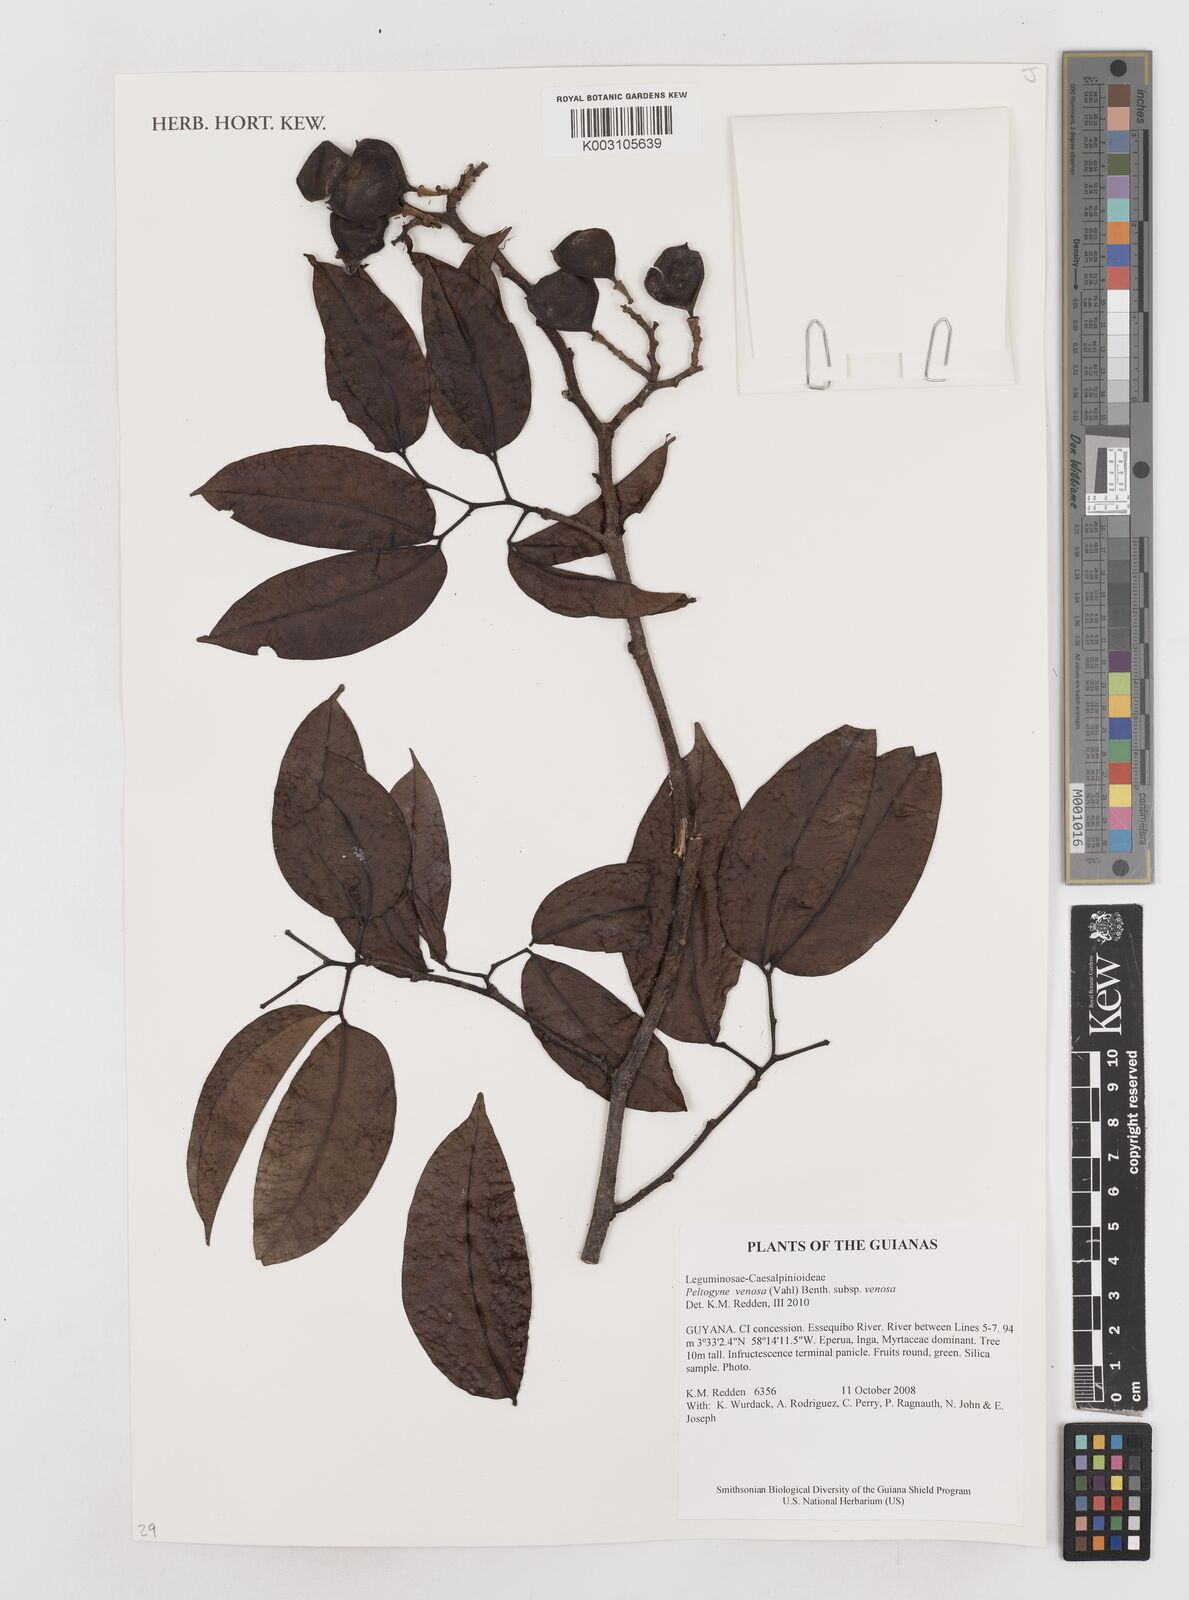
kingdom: Plantae
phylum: Tracheophyta
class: Magnoliopsida
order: Fabales
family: Fabaceae
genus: Peltogyne
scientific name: Peltogyne venosa
